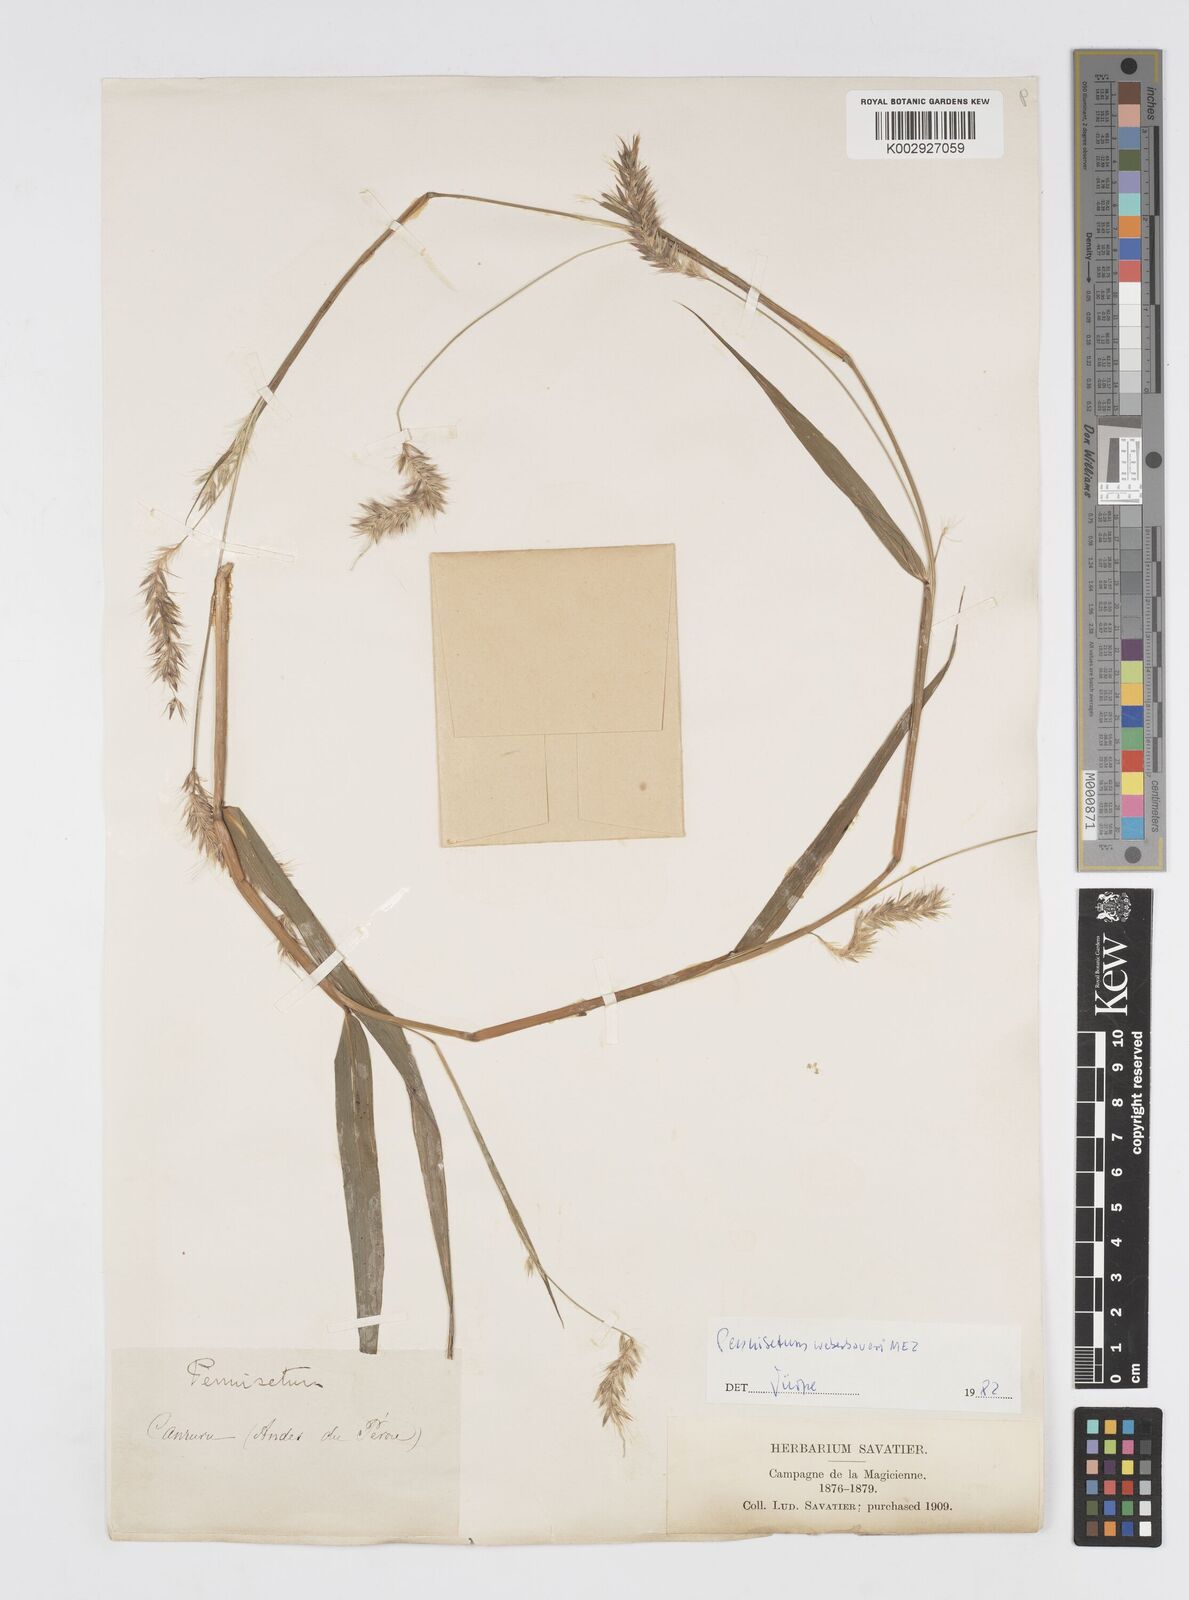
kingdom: Plantae
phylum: Tracheophyta
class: Liliopsida
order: Poales
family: Poaceae
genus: Cenchrus
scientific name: Cenchrus weberbaueri
